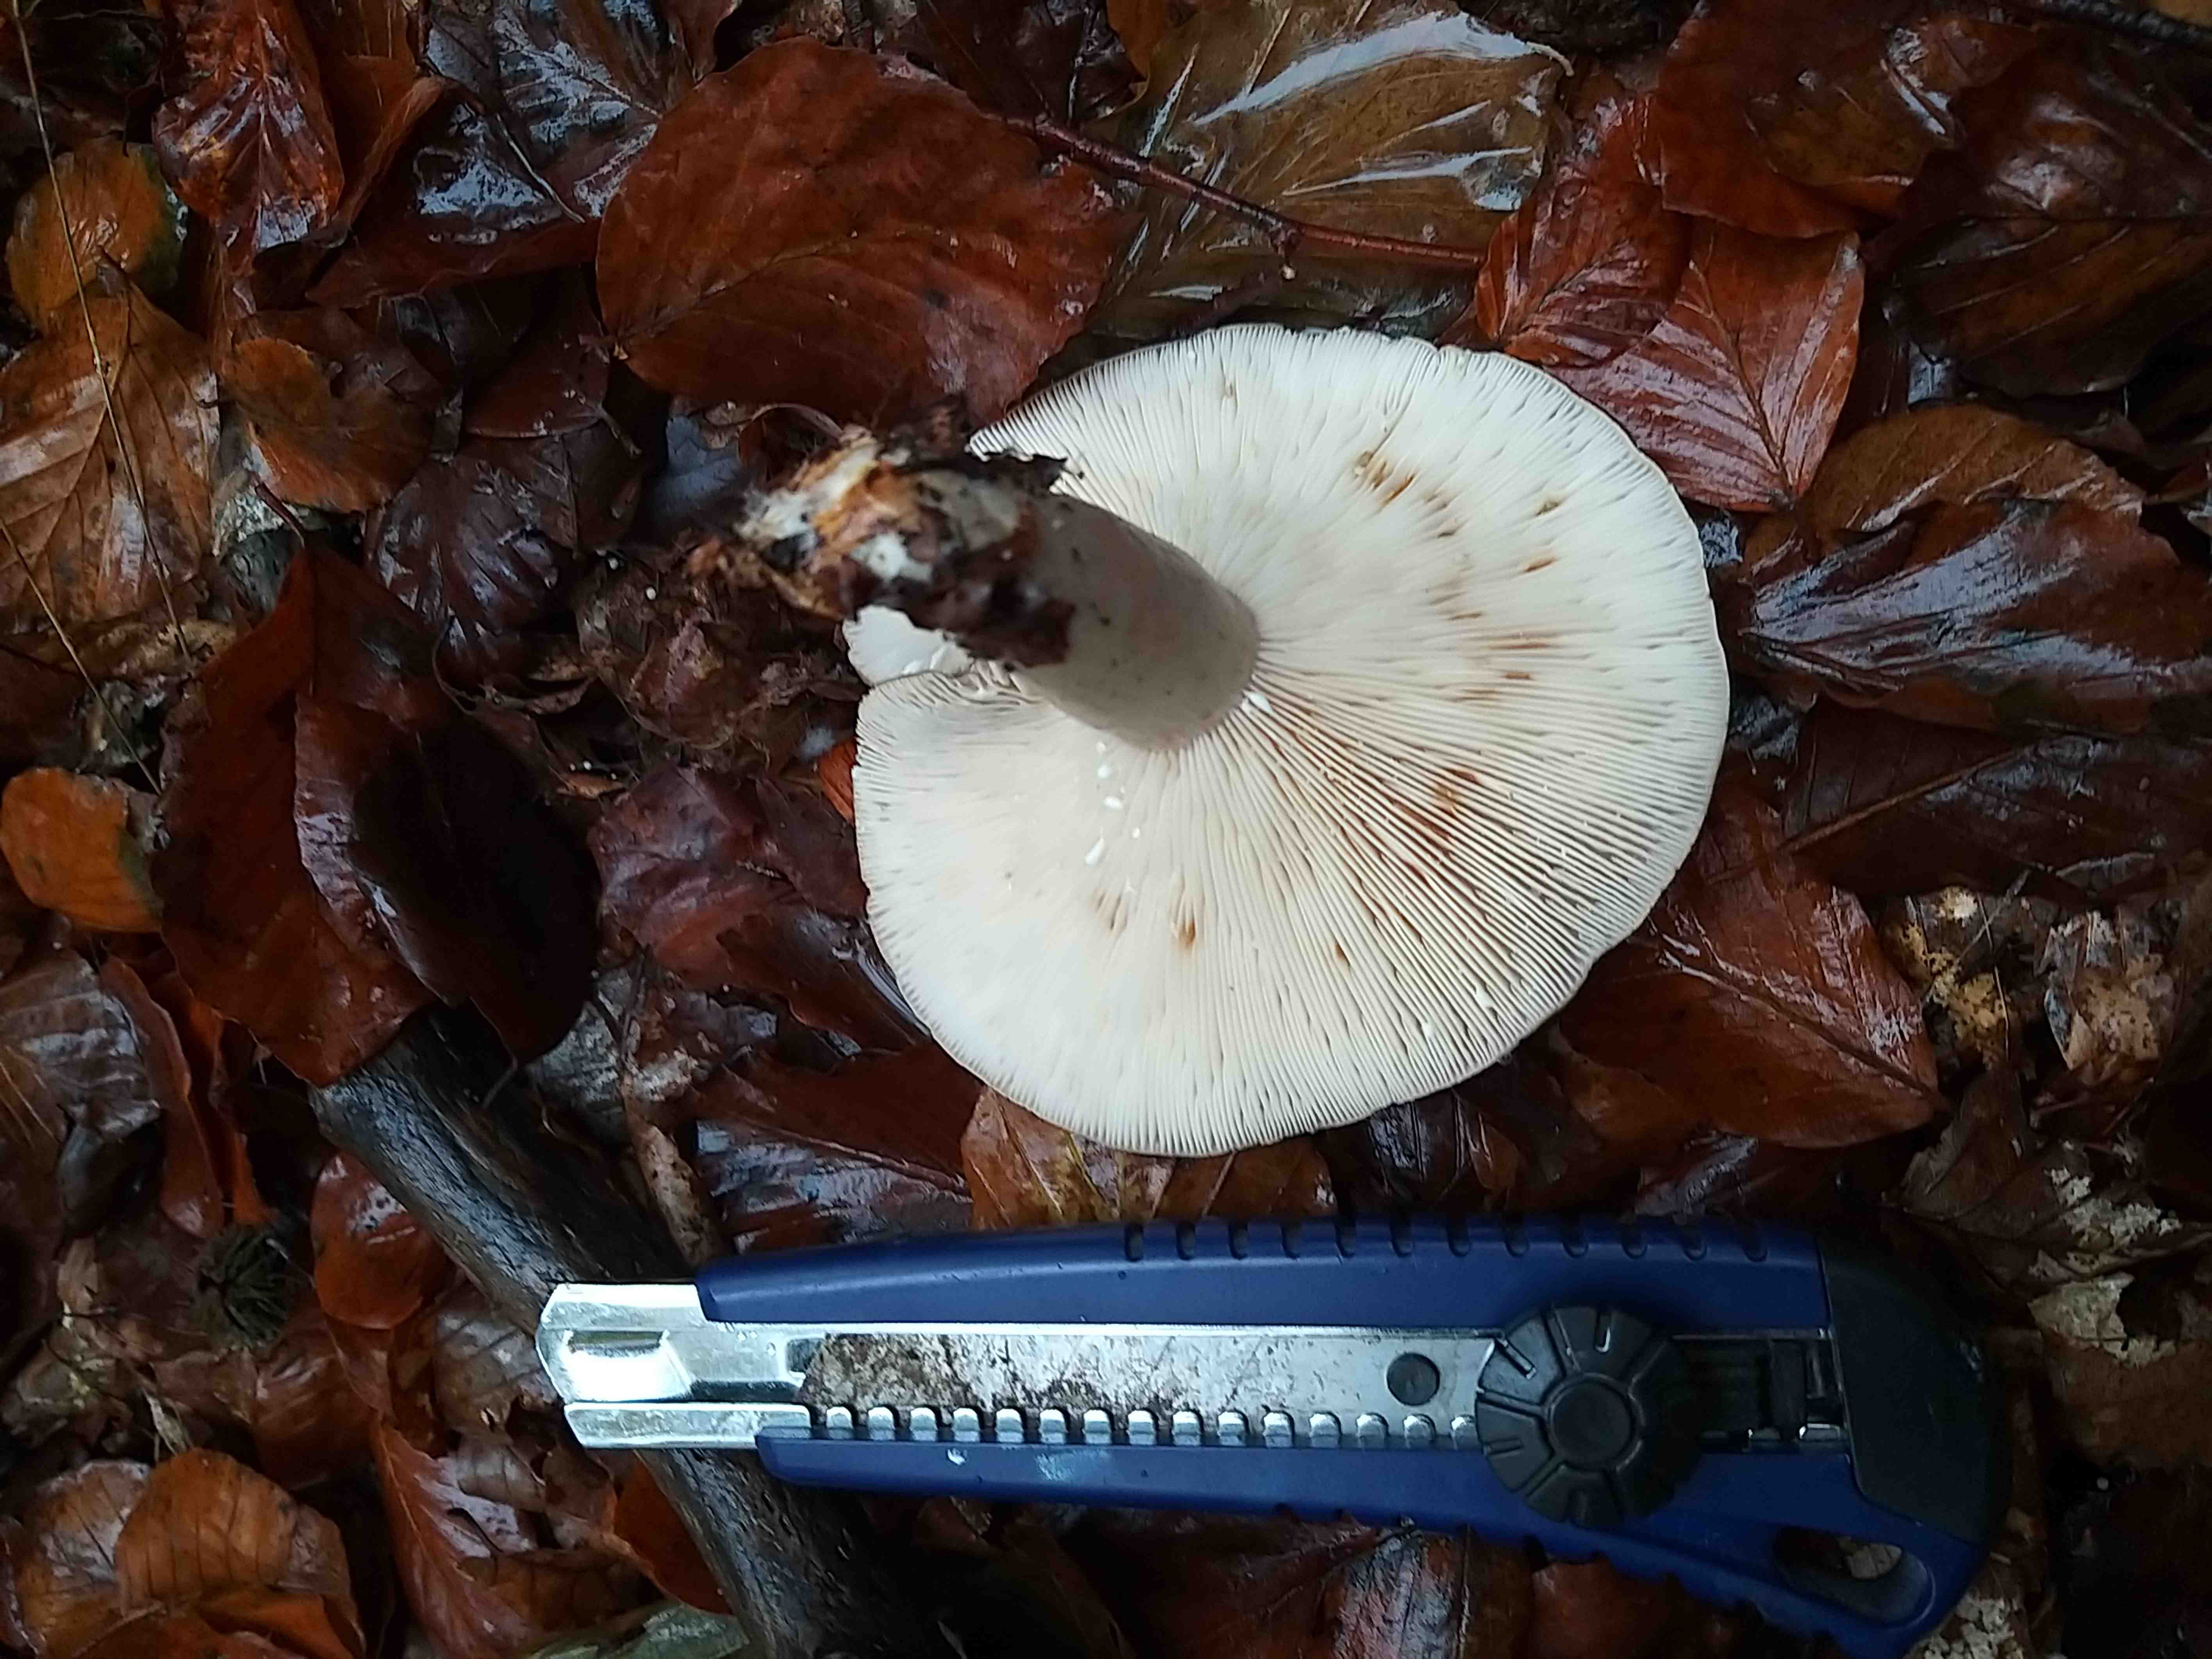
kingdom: Fungi
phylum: Basidiomycota
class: Agaricomycetes
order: Russulales
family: Russulaceae
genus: Lactarius
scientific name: Lactarius
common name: mælkehat
